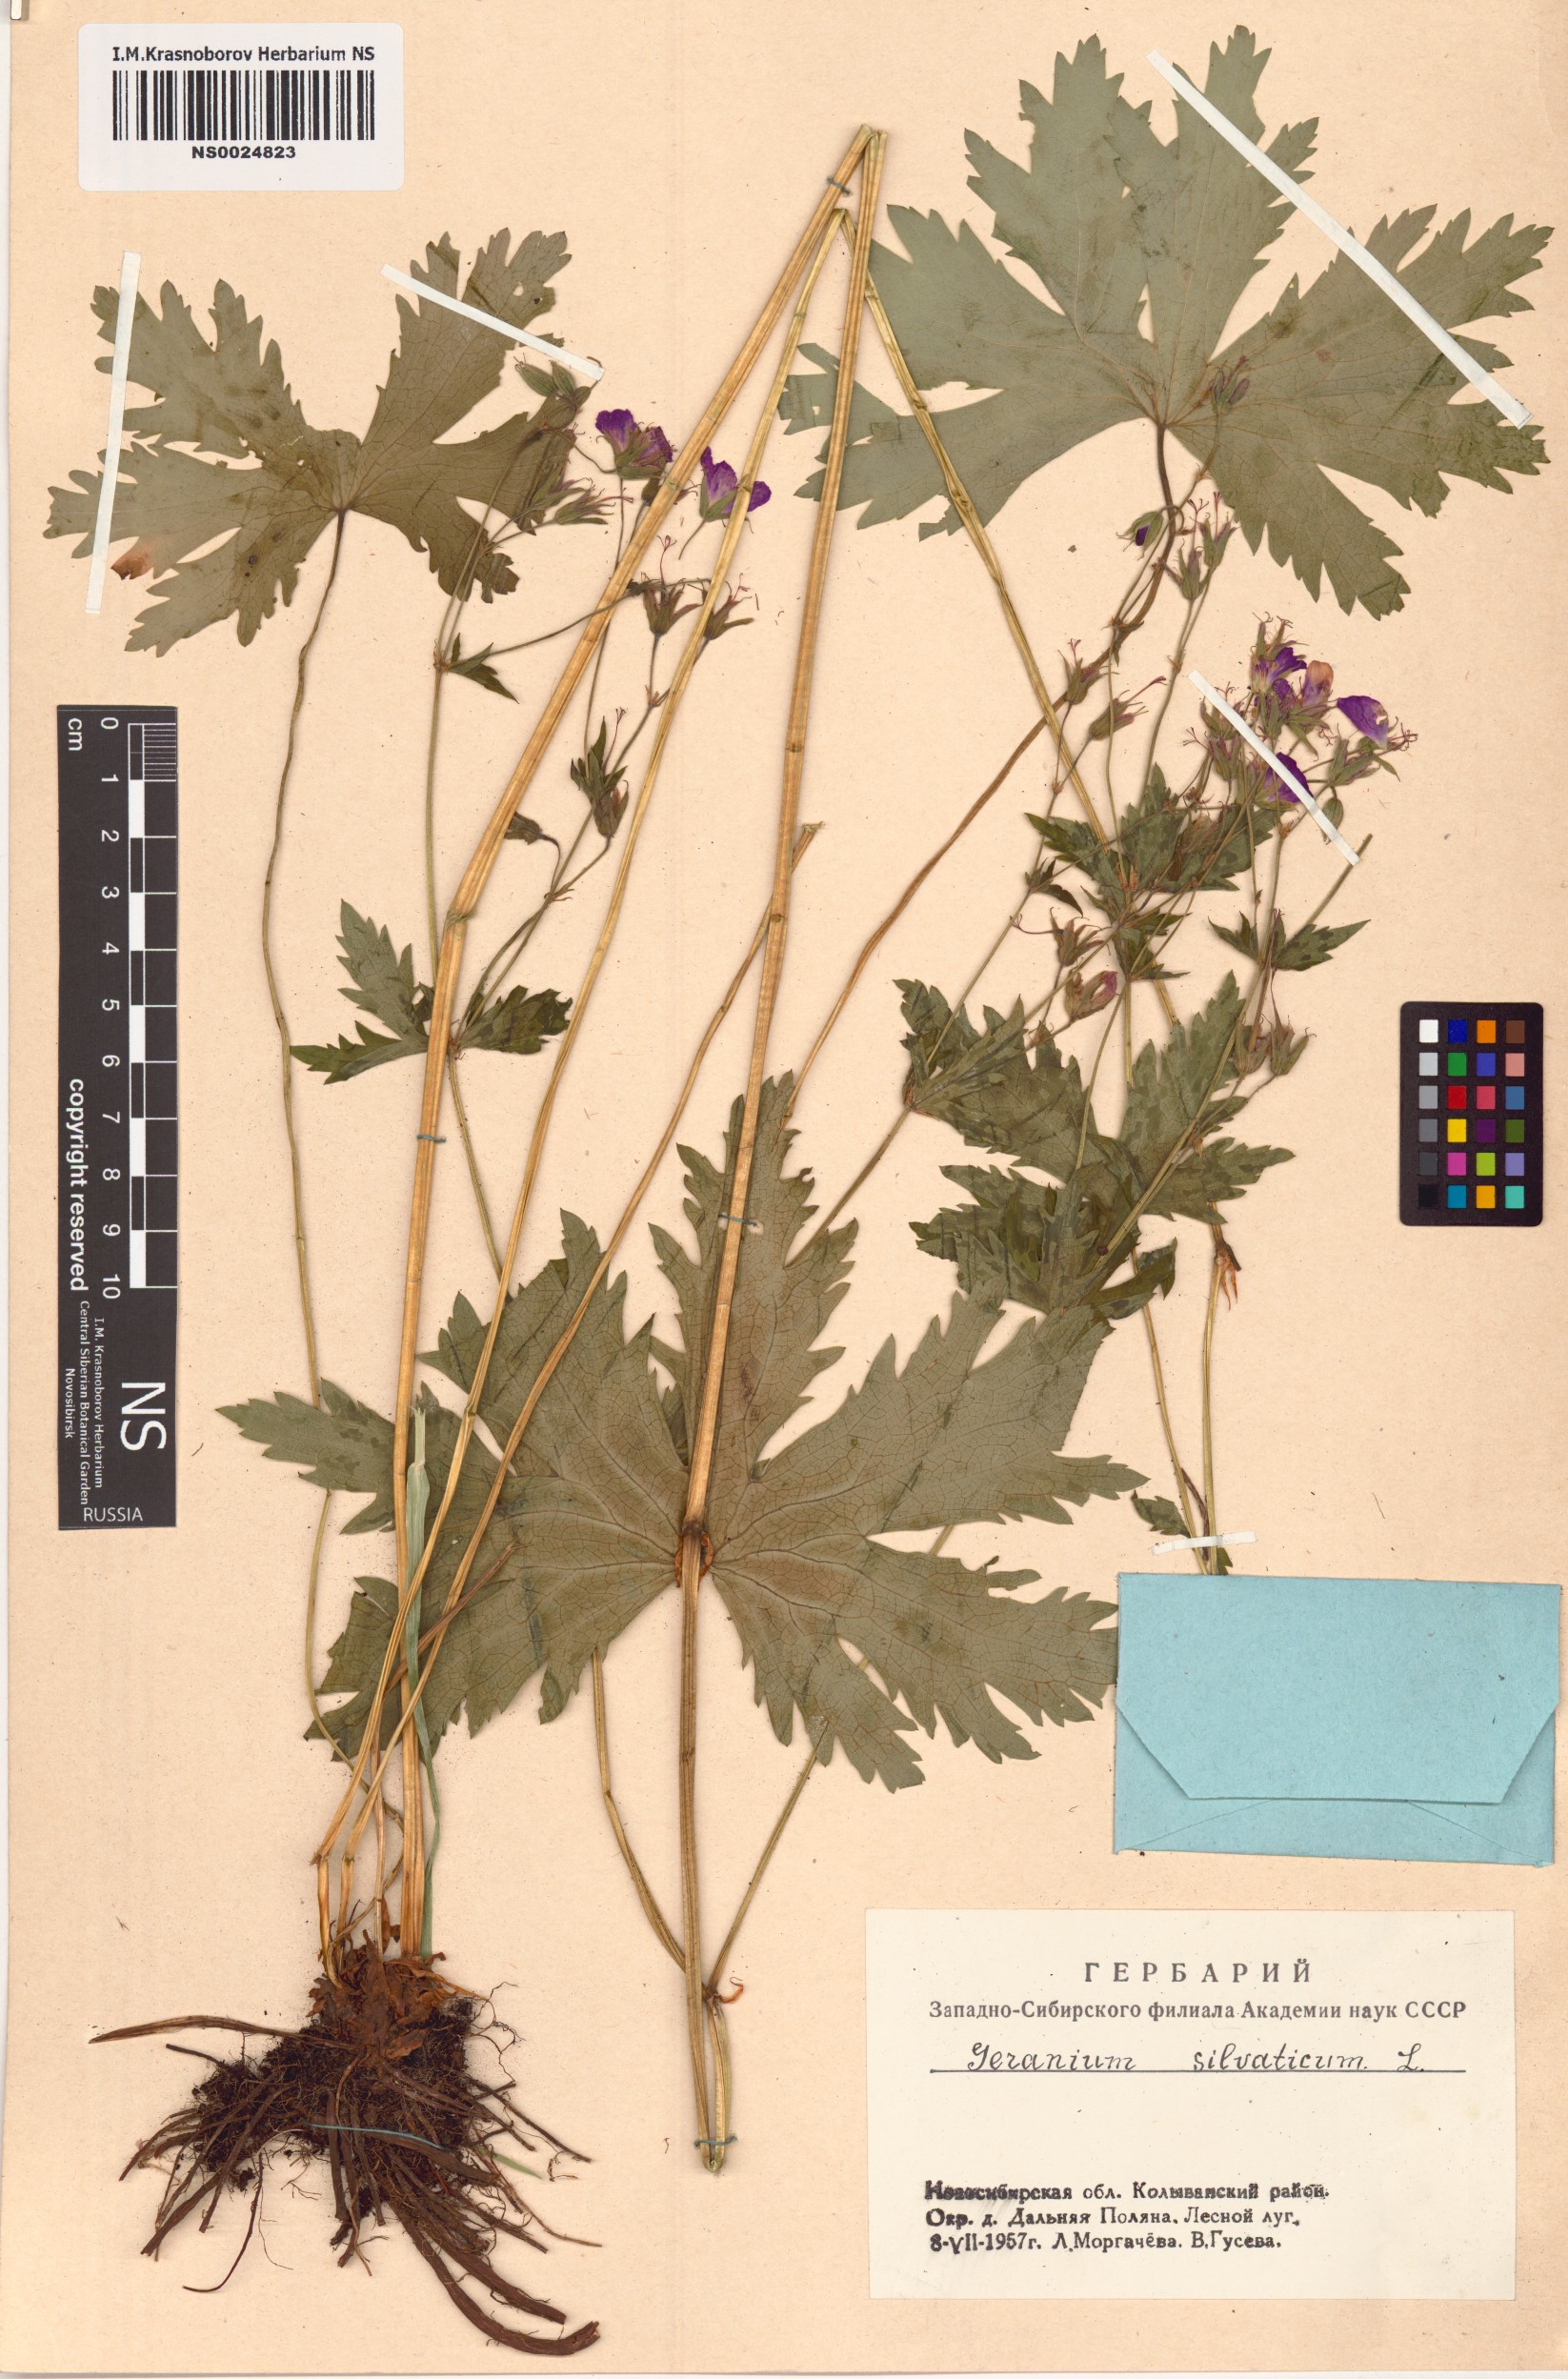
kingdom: Plantae
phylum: Tracheophyta
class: Magnoliopsida
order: Geraniales
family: Geraniaceae
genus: Geranium
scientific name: Geranium sylvaticum
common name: Wood crane's-bill
